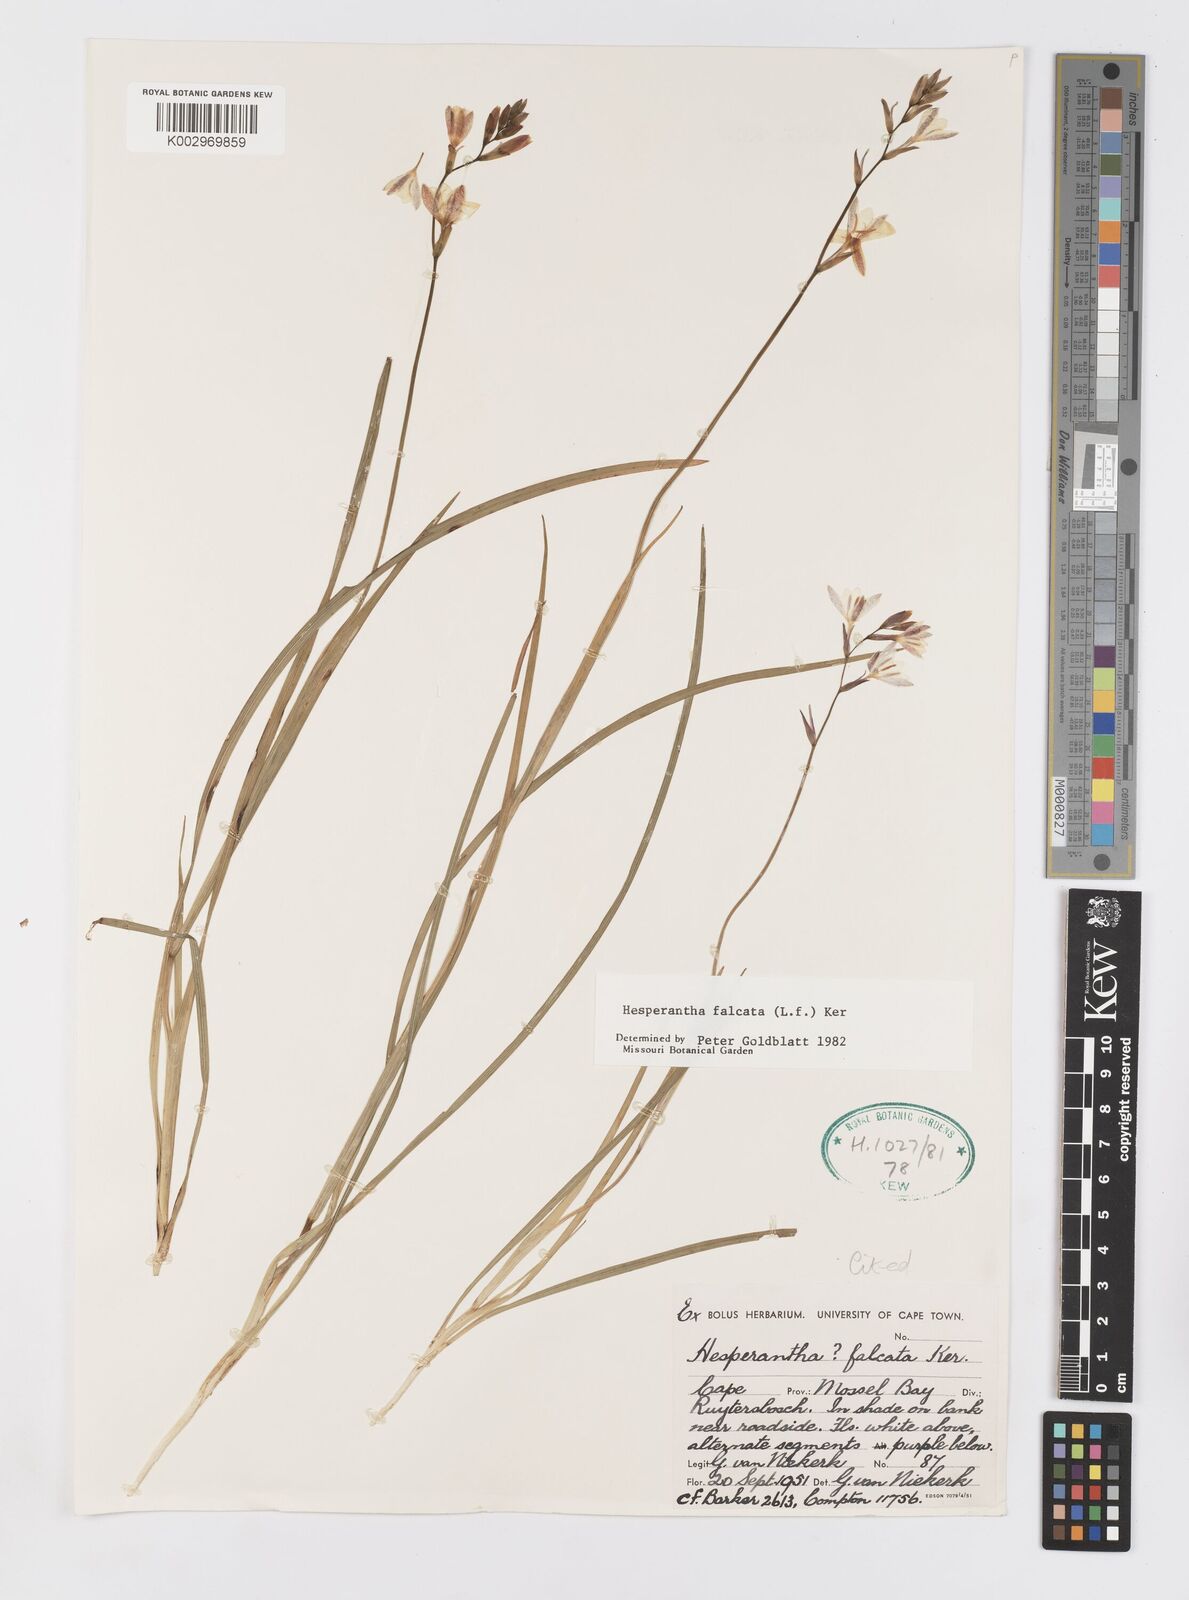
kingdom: Plantae
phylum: Tracheophyta
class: Liliopsida
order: Asparagales
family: Iridaceae
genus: Hesperantha
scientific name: Hesperantha falcata
